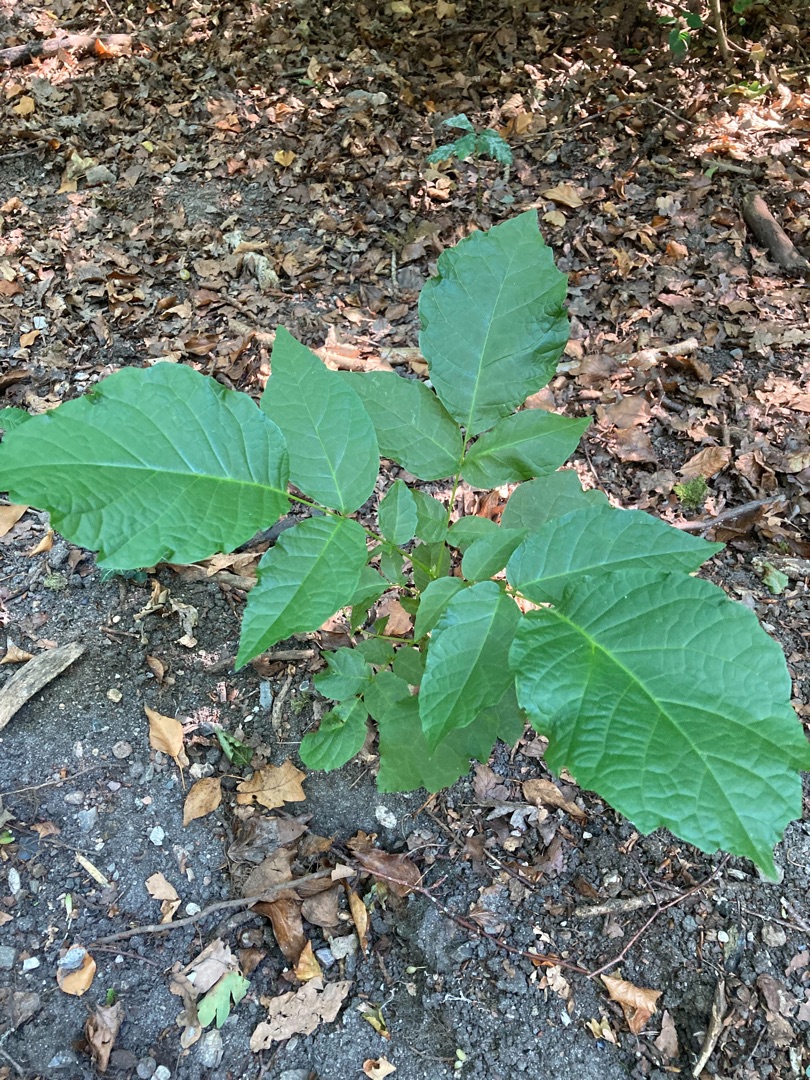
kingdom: Plantae
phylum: Tracheophyta
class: Magnoliopsida
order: Fagales
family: Juglandaceae
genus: Juglans
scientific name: Juglans regia
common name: Almindelig valnød
